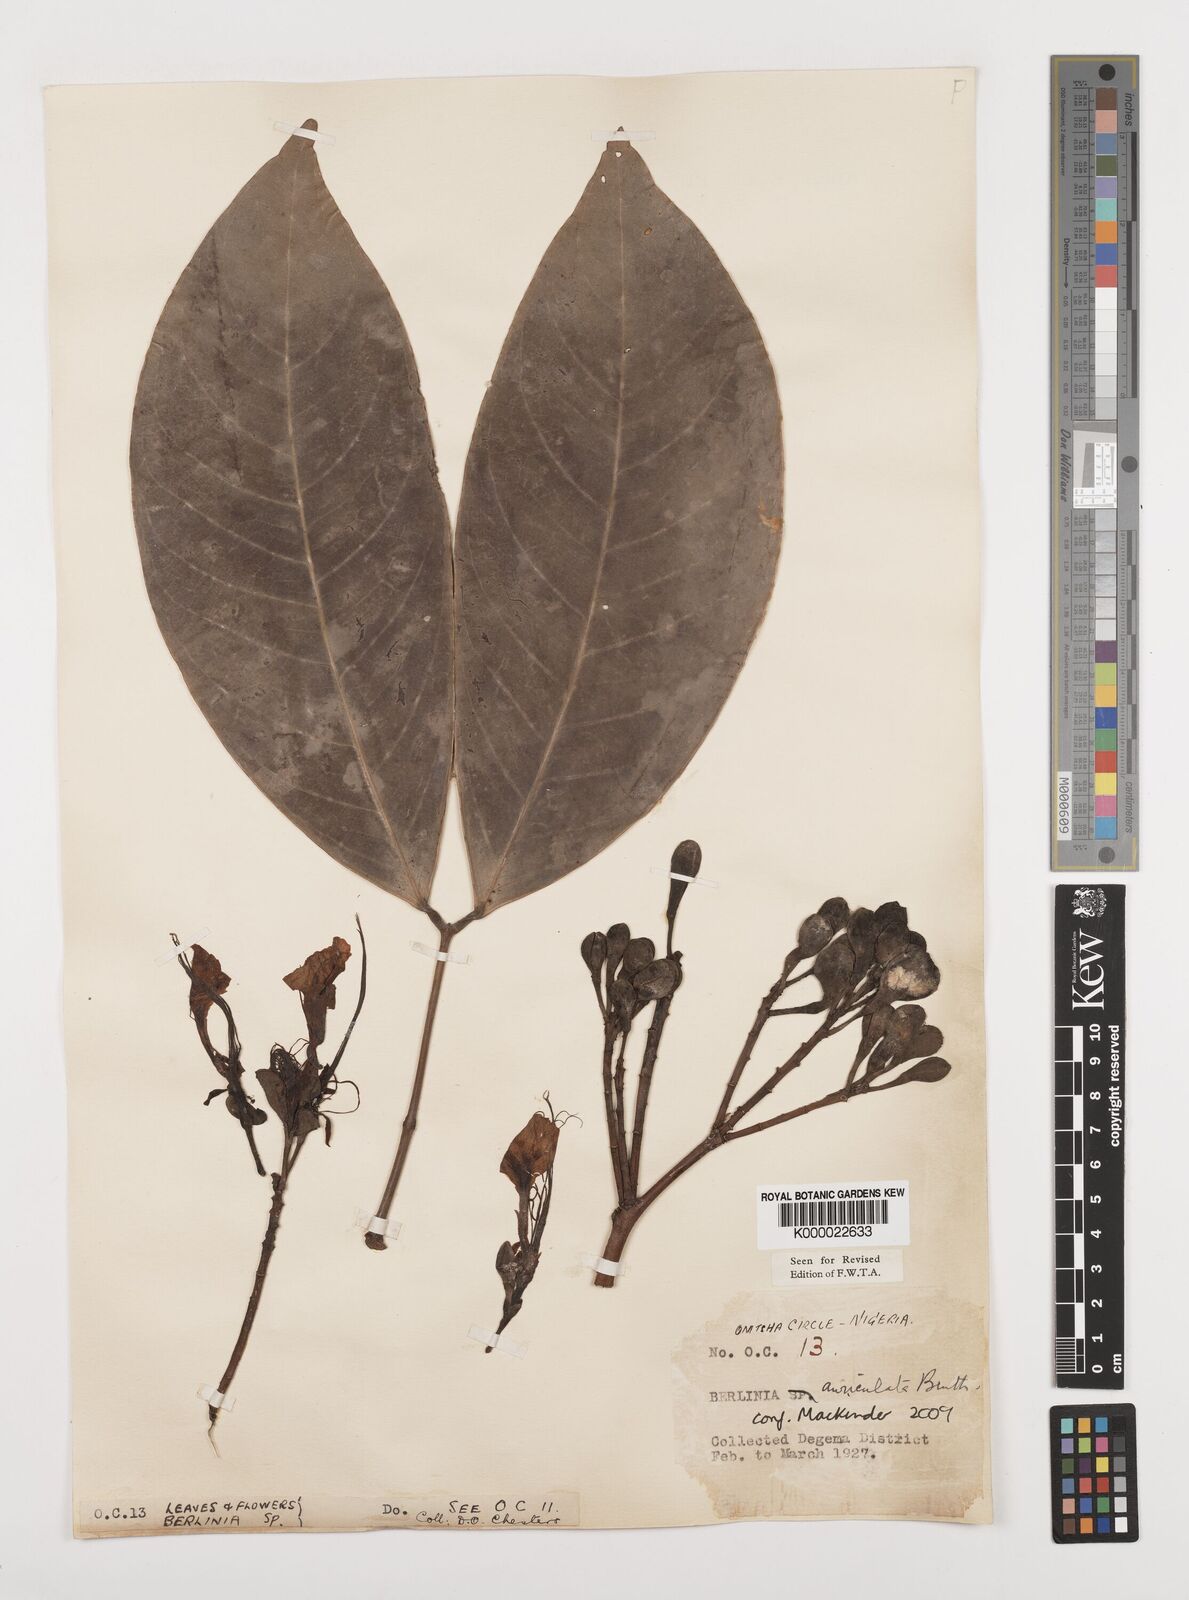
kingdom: Plantae
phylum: Tracheophyta
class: Magnoliopsida
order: Fabales
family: Fabaceae
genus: Berlinia
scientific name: Berlinia auriculata
